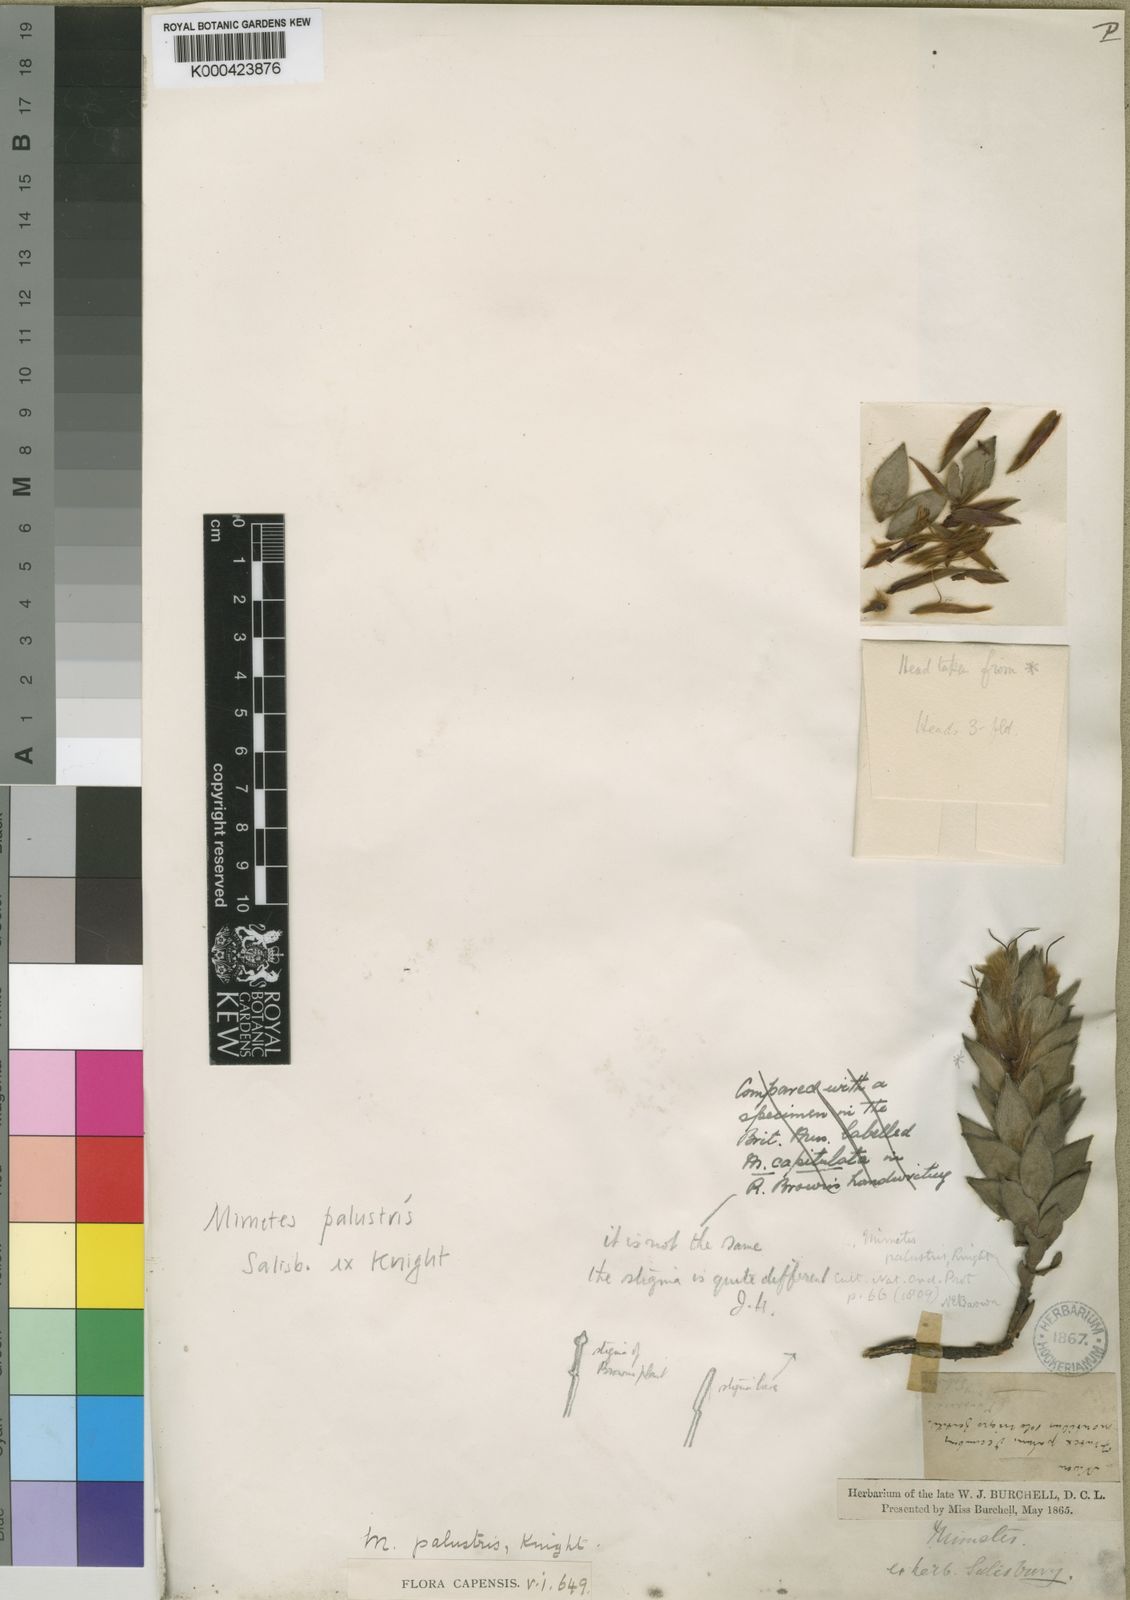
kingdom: Plantae
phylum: Tracheophyta
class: Magnoliopsida
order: Proteales
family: Proteaceae
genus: Mimetes
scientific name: Mimetes palustris
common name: Cryptic pagoda
